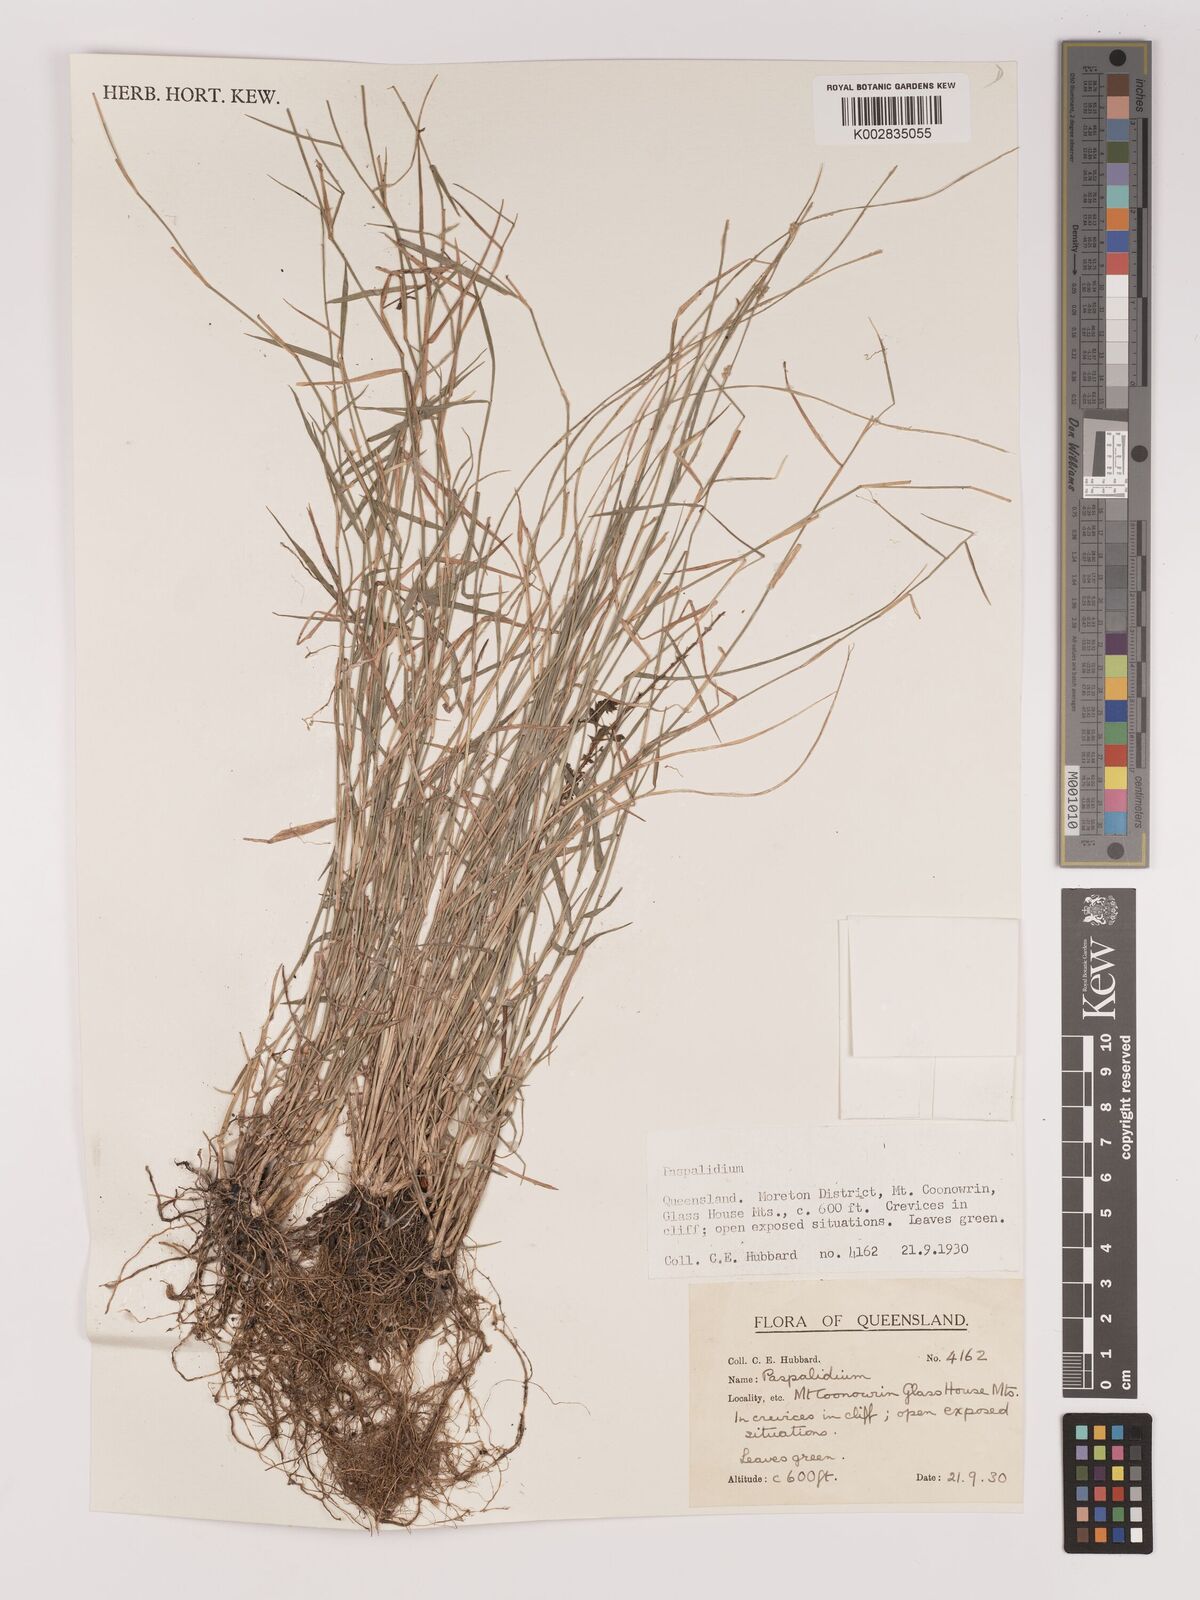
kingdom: Plantae
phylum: Tracheophyta
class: Liliopsida
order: Poales
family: Poaceae
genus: Setaria
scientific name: Setaria
